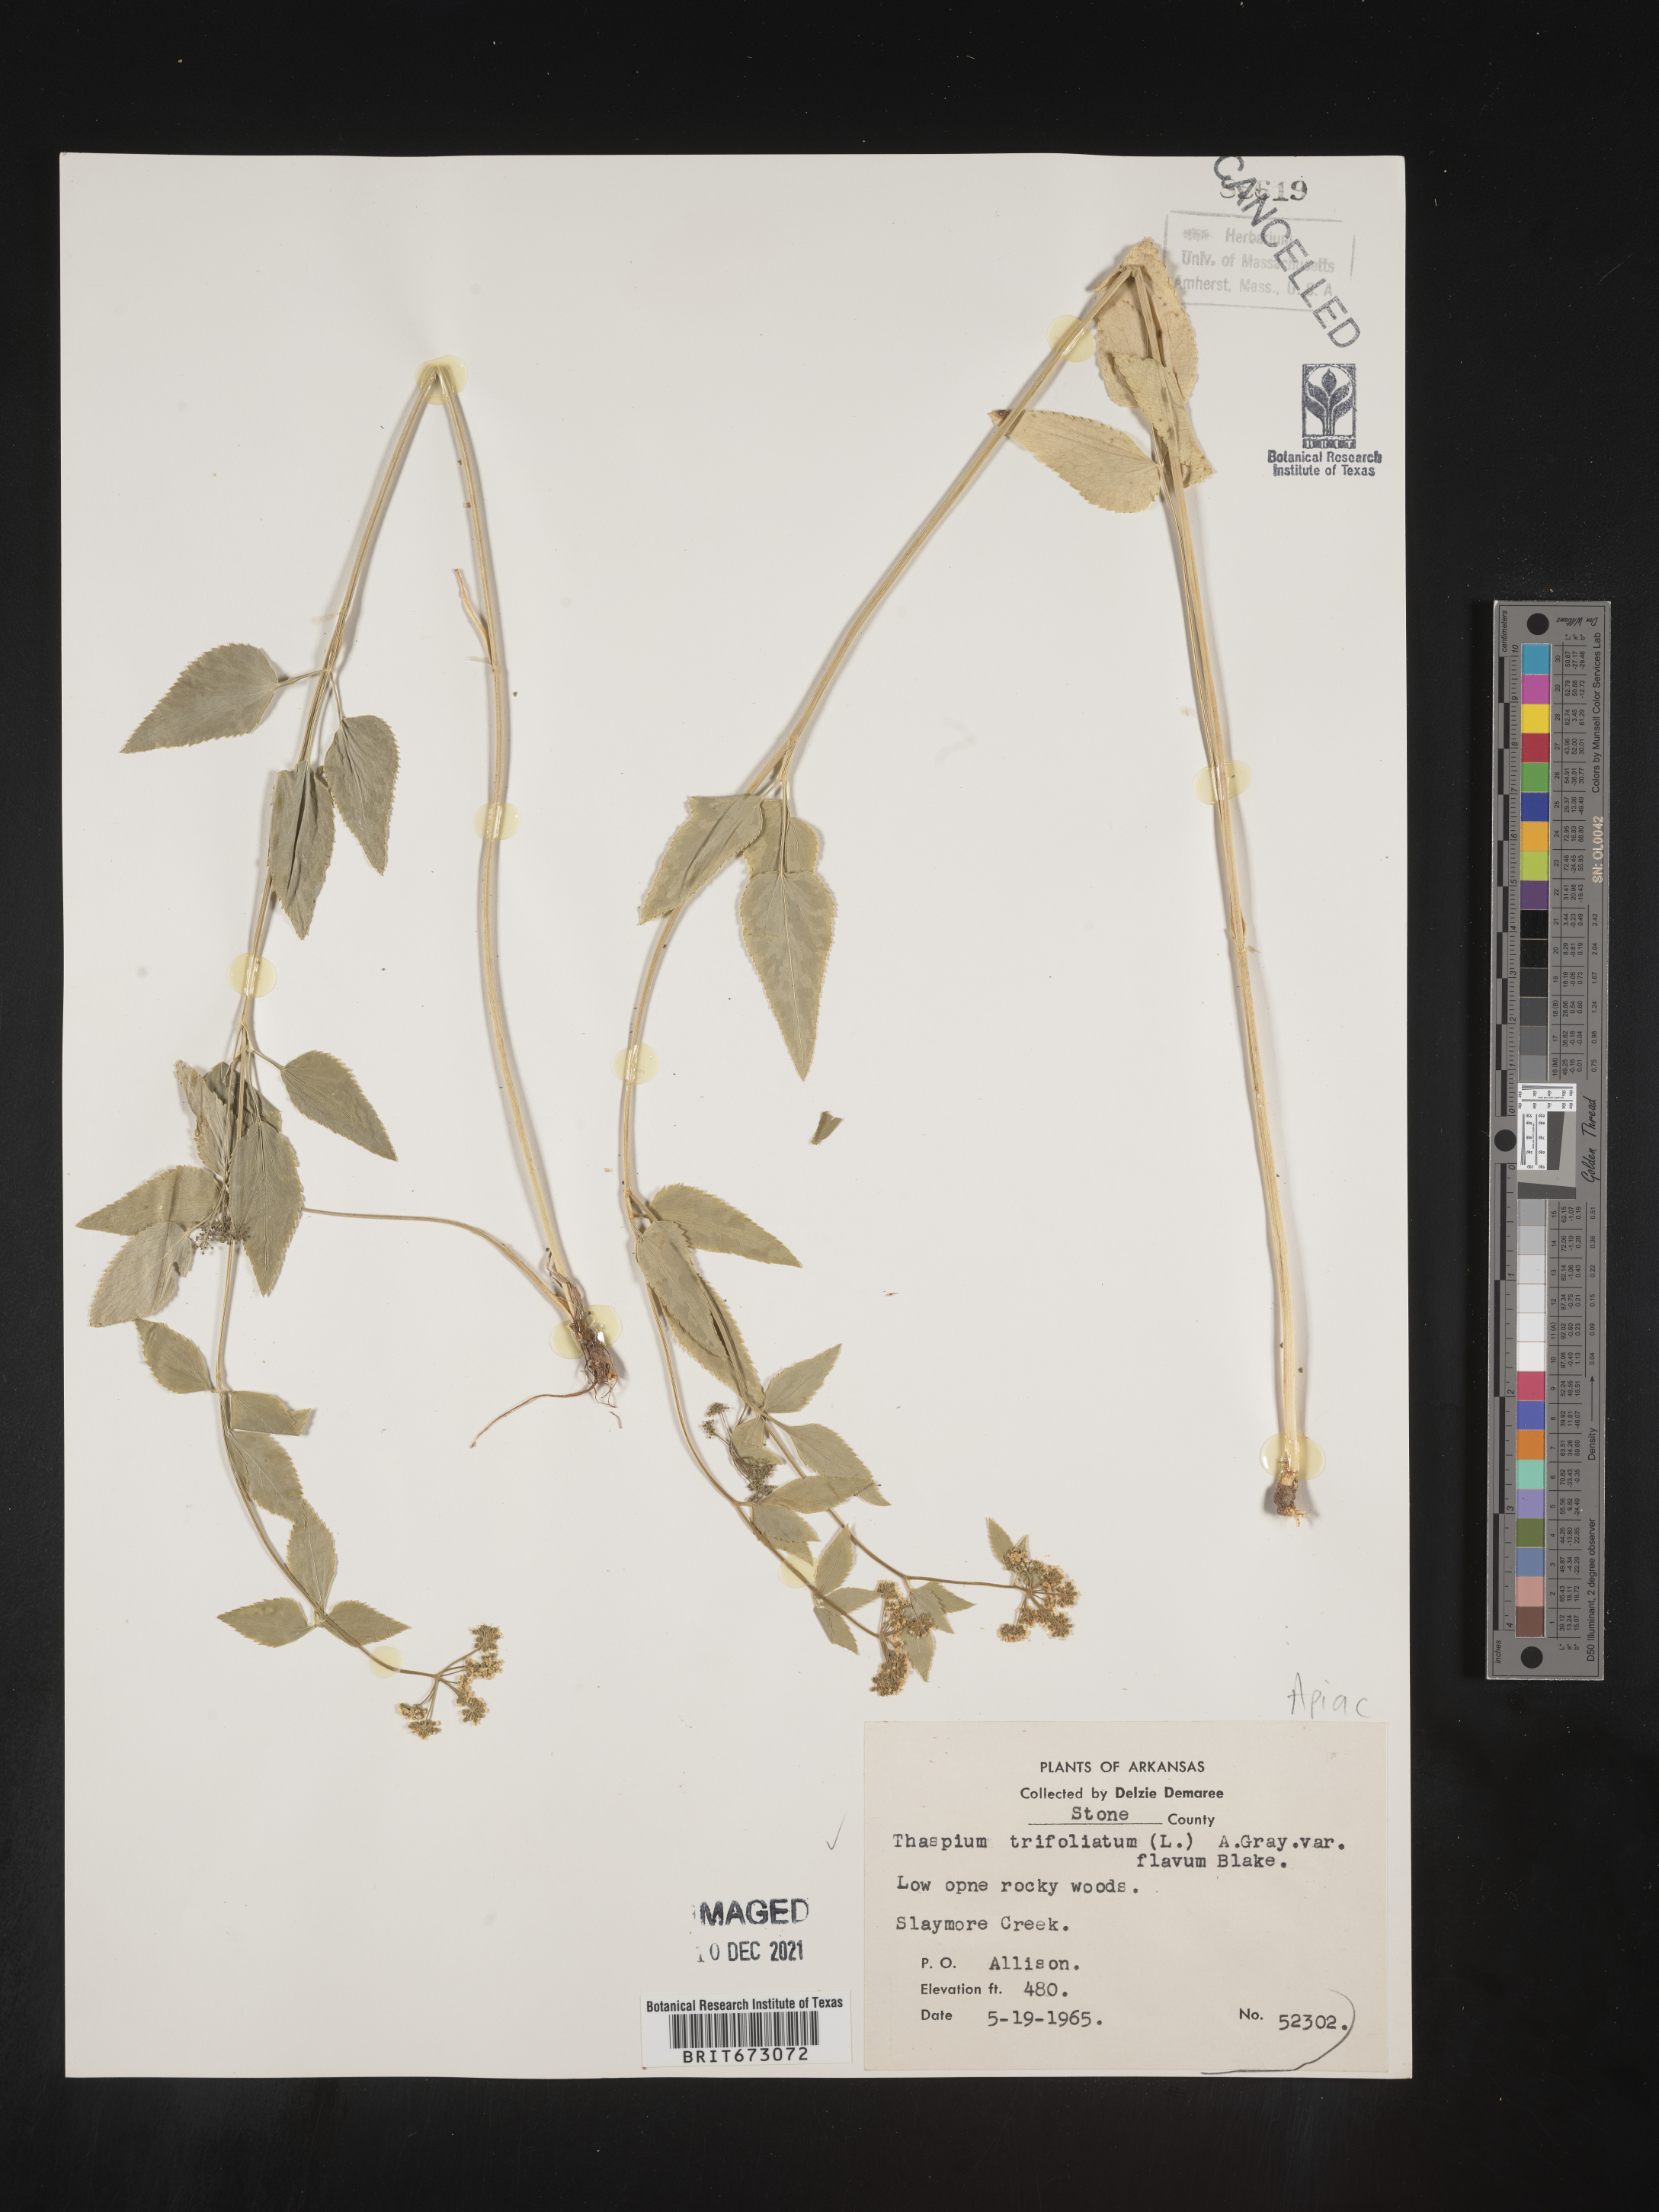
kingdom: Plantae
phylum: Tracheophyta
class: Magnoliopsida
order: Apiales
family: Apiaceae
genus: Thaspium
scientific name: Thaspium trifoliatum
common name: Purple meadow-parsnip
